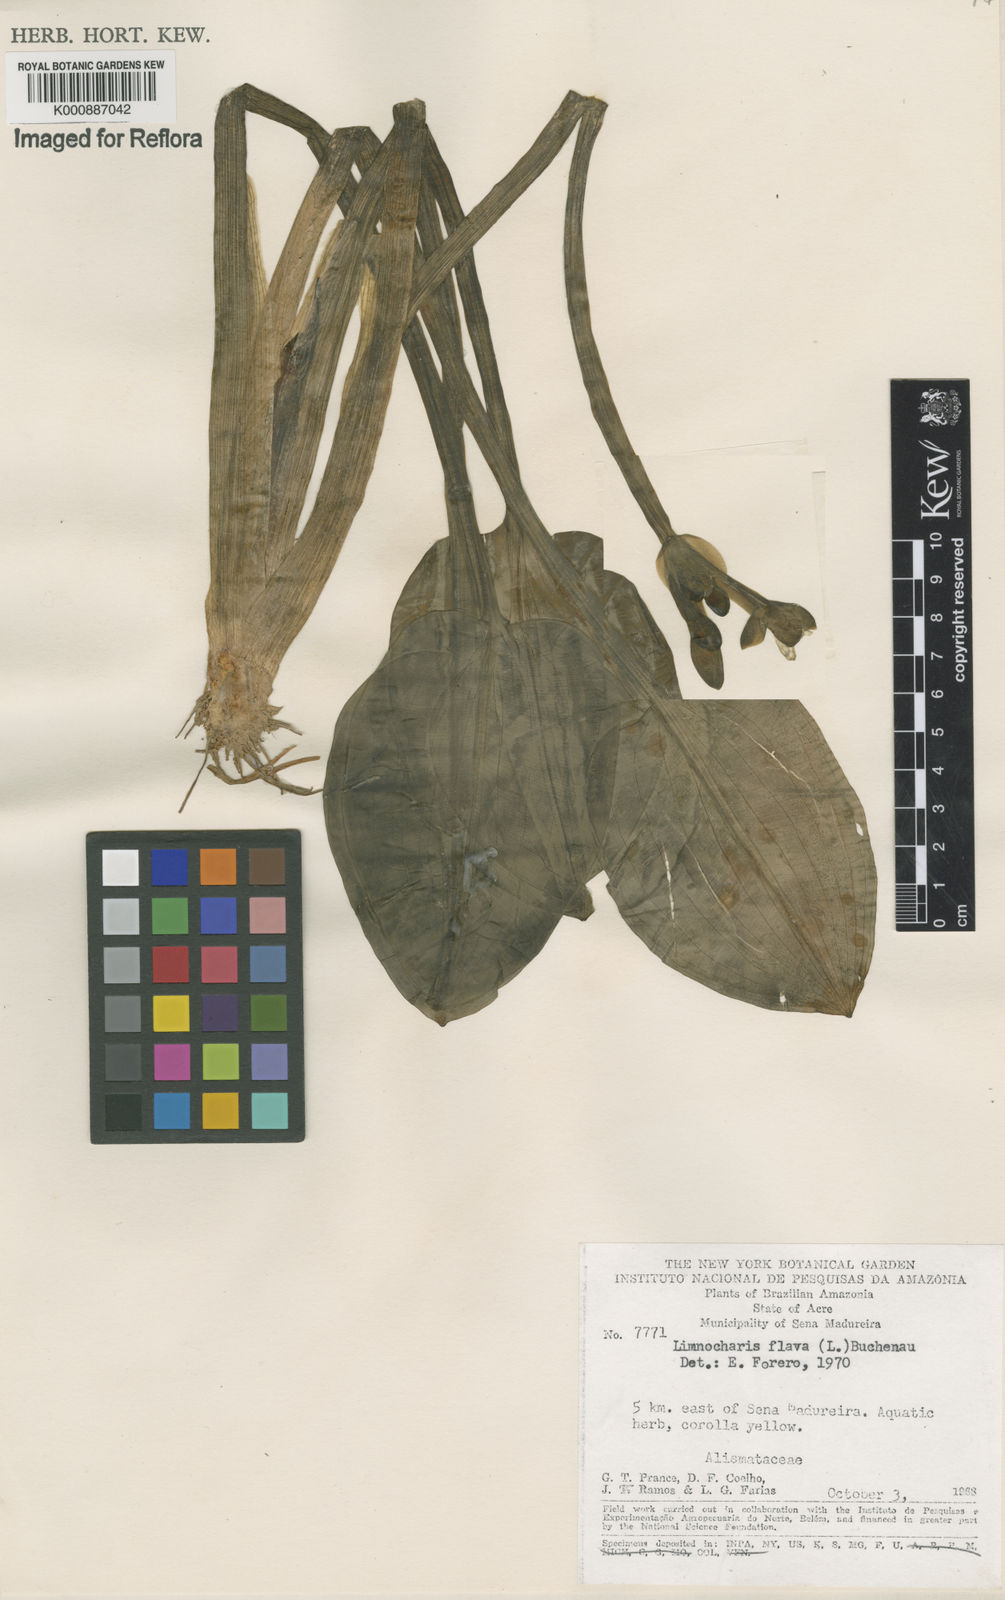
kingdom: Plantae
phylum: Tracheophyta
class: Liliopsida
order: Alismatales
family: Alismataceae
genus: Limnocharis
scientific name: Limnocharis flava
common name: Sawah-flower-rush
